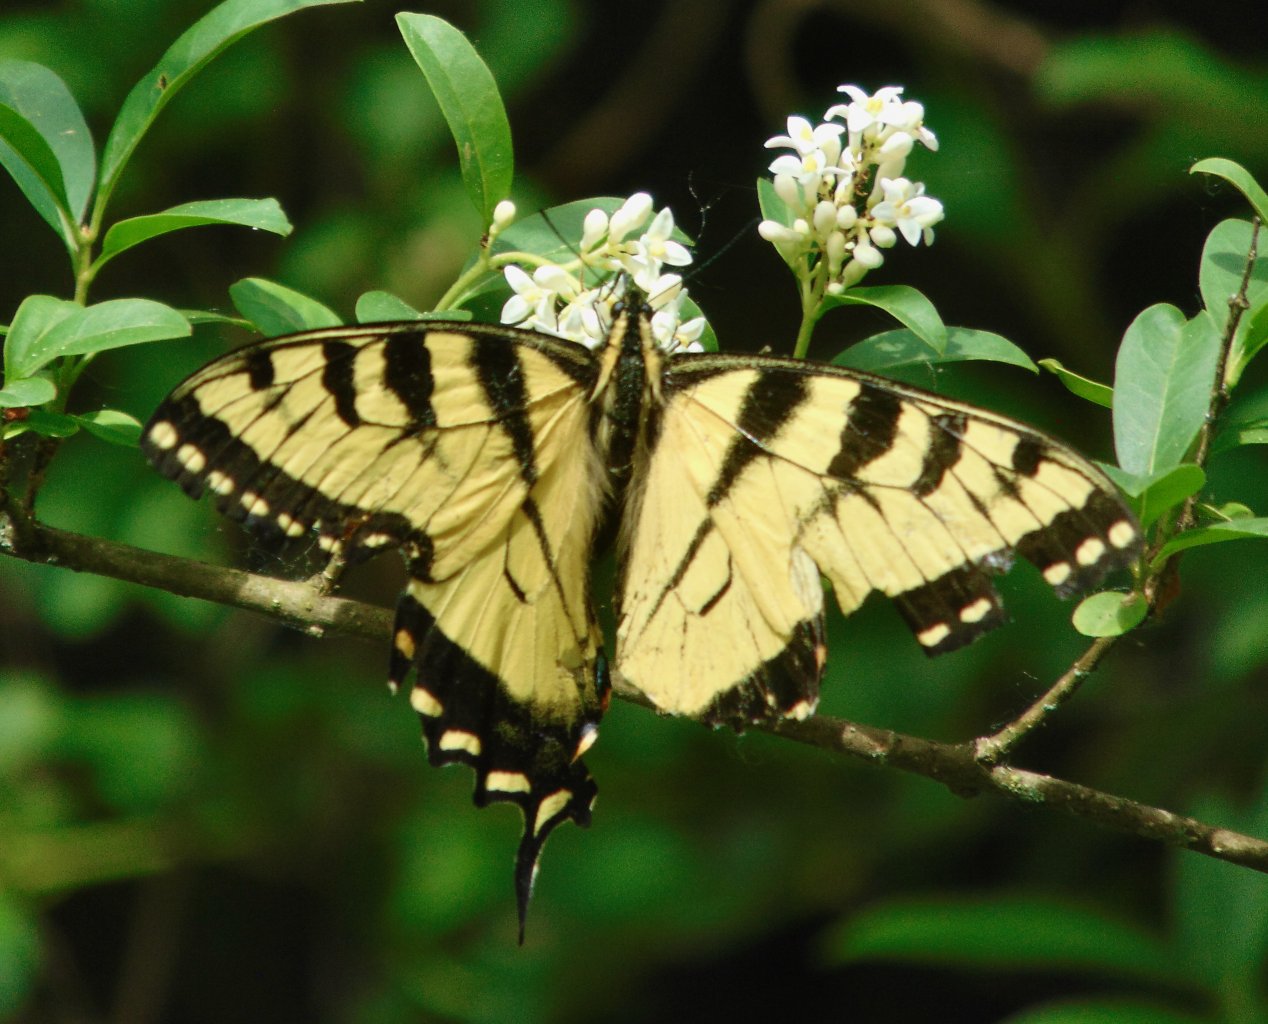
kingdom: Animalia
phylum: Arthropoda
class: Insecta
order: Lepidoptera
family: Papilionidae
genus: Pterourus
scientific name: Pterourus glaucus
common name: Eastern Tiger Swallowtail
